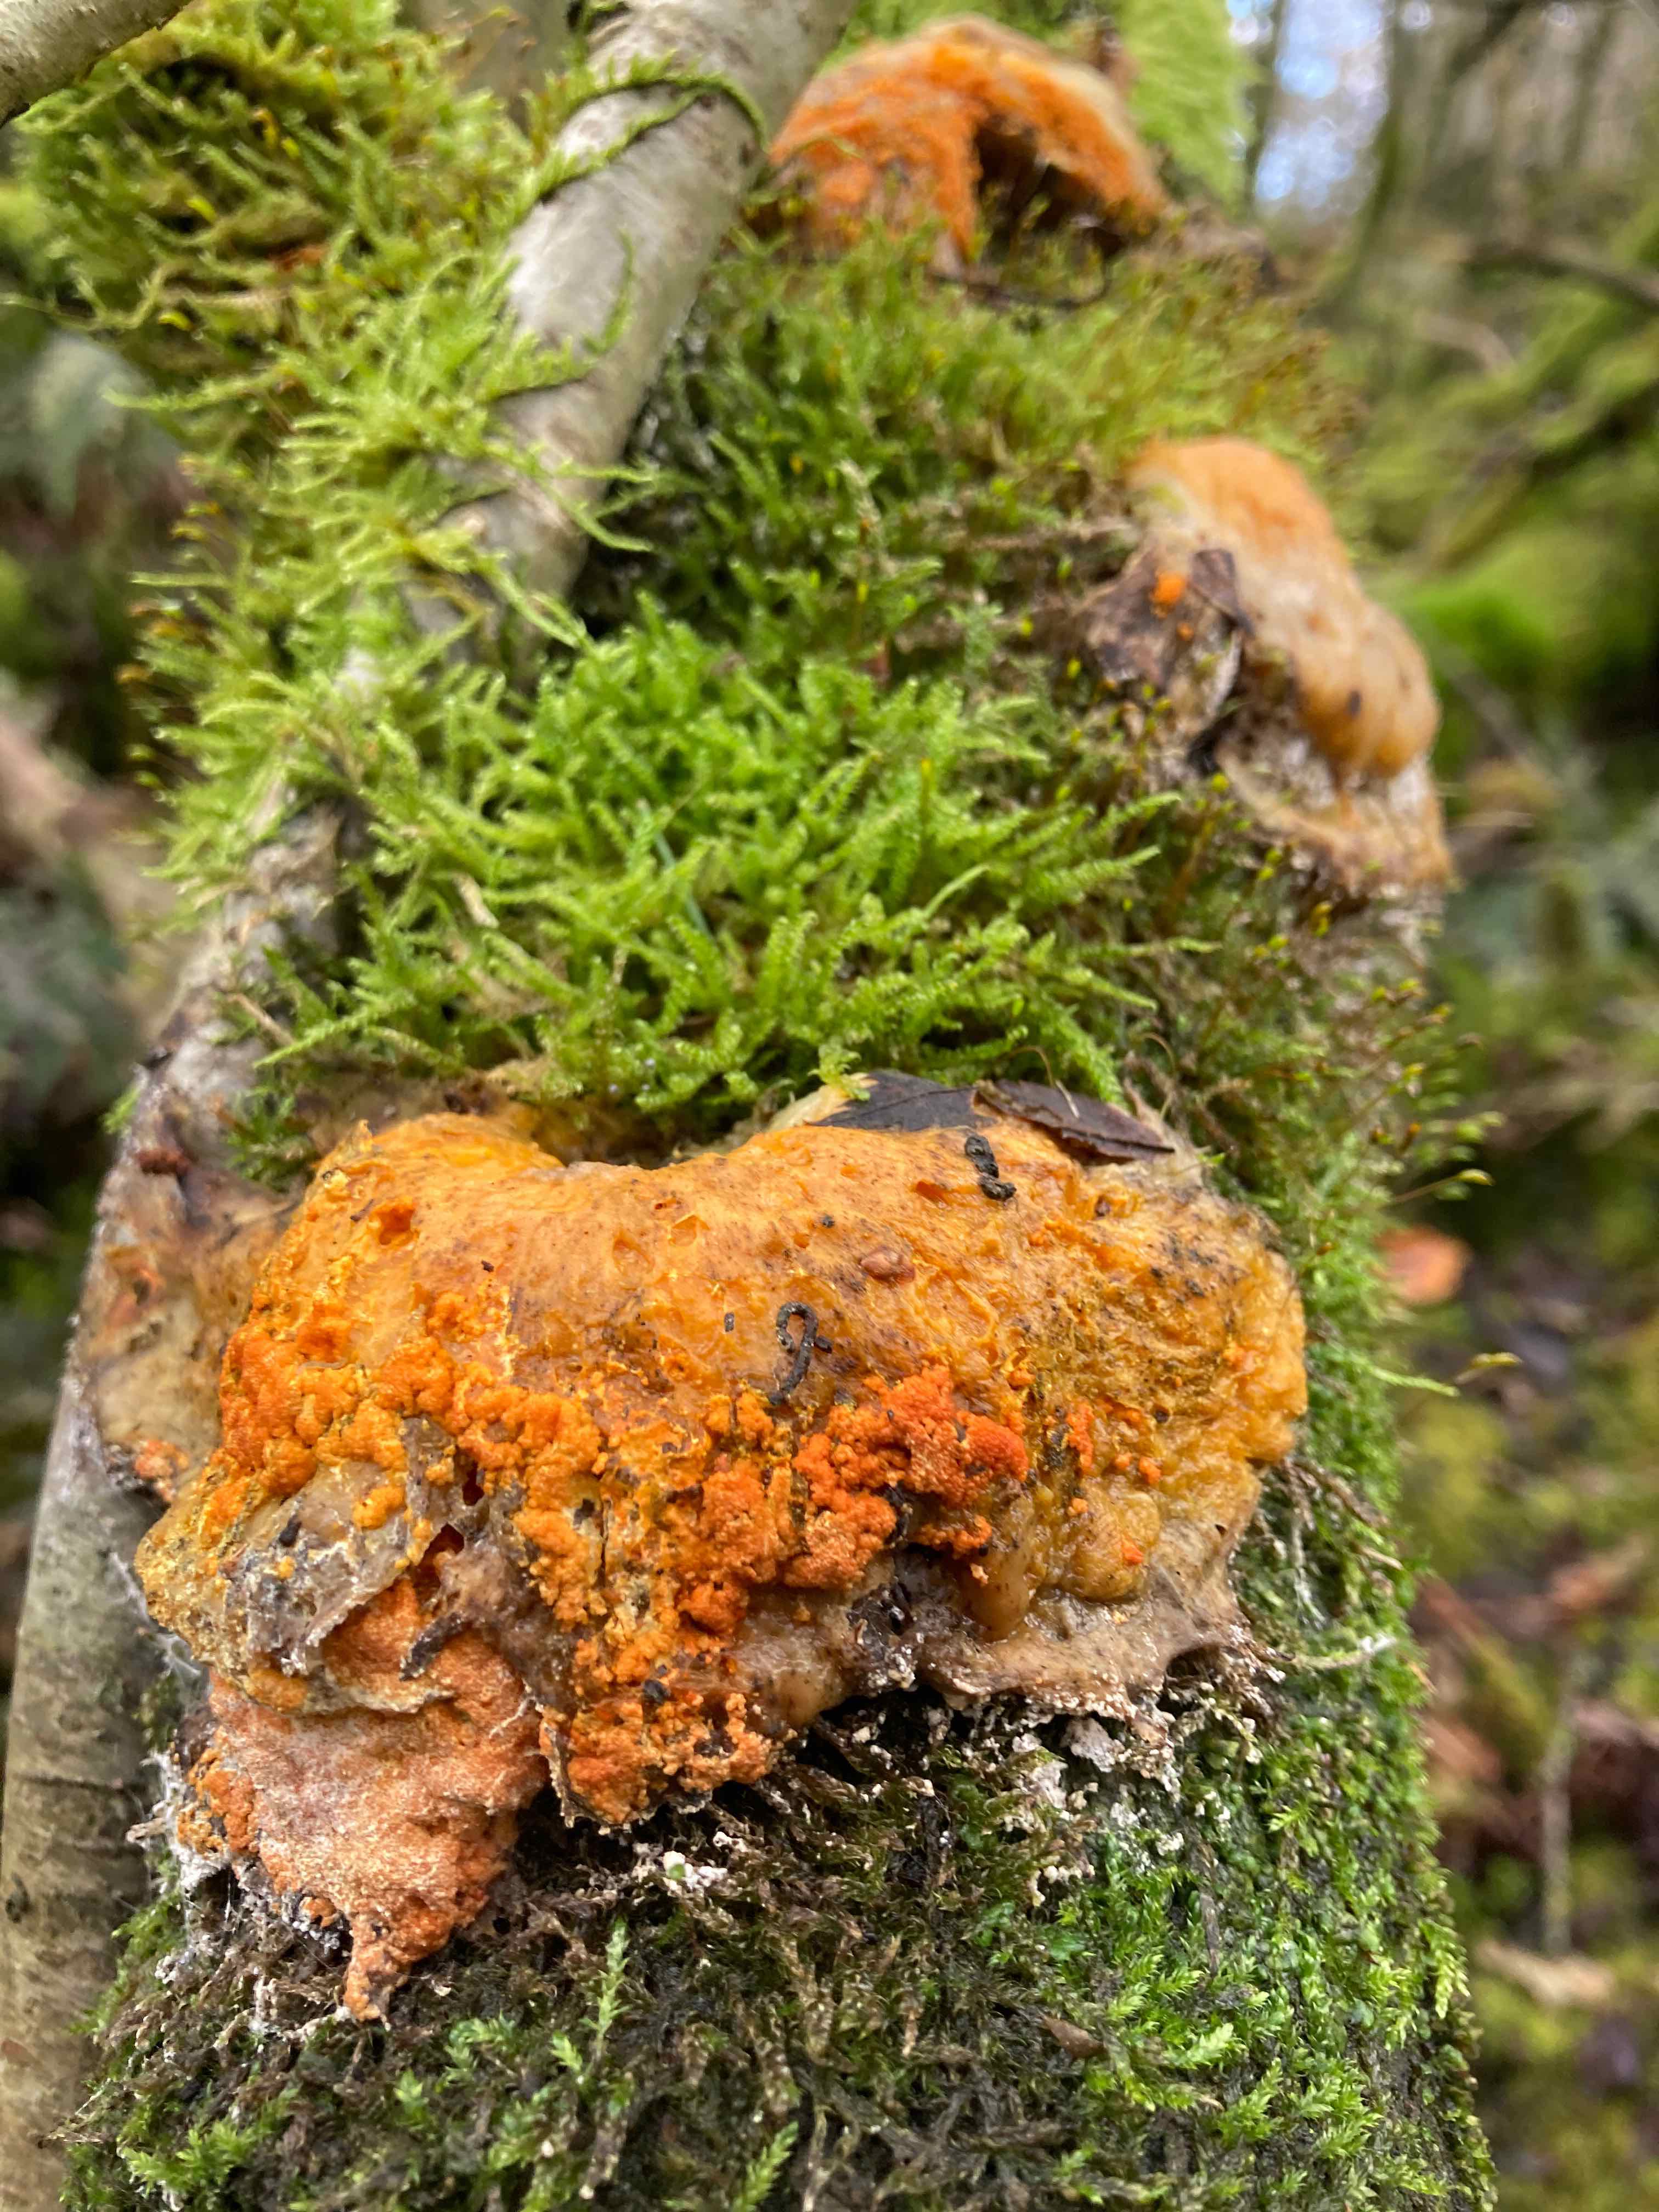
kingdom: Fungi
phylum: Ascomycota
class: Sordariomycetes
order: Hypocreales
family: Hypocreaceae
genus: Hypomyces
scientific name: Hypomyces aurantius
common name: almindelig snylteskorpe
